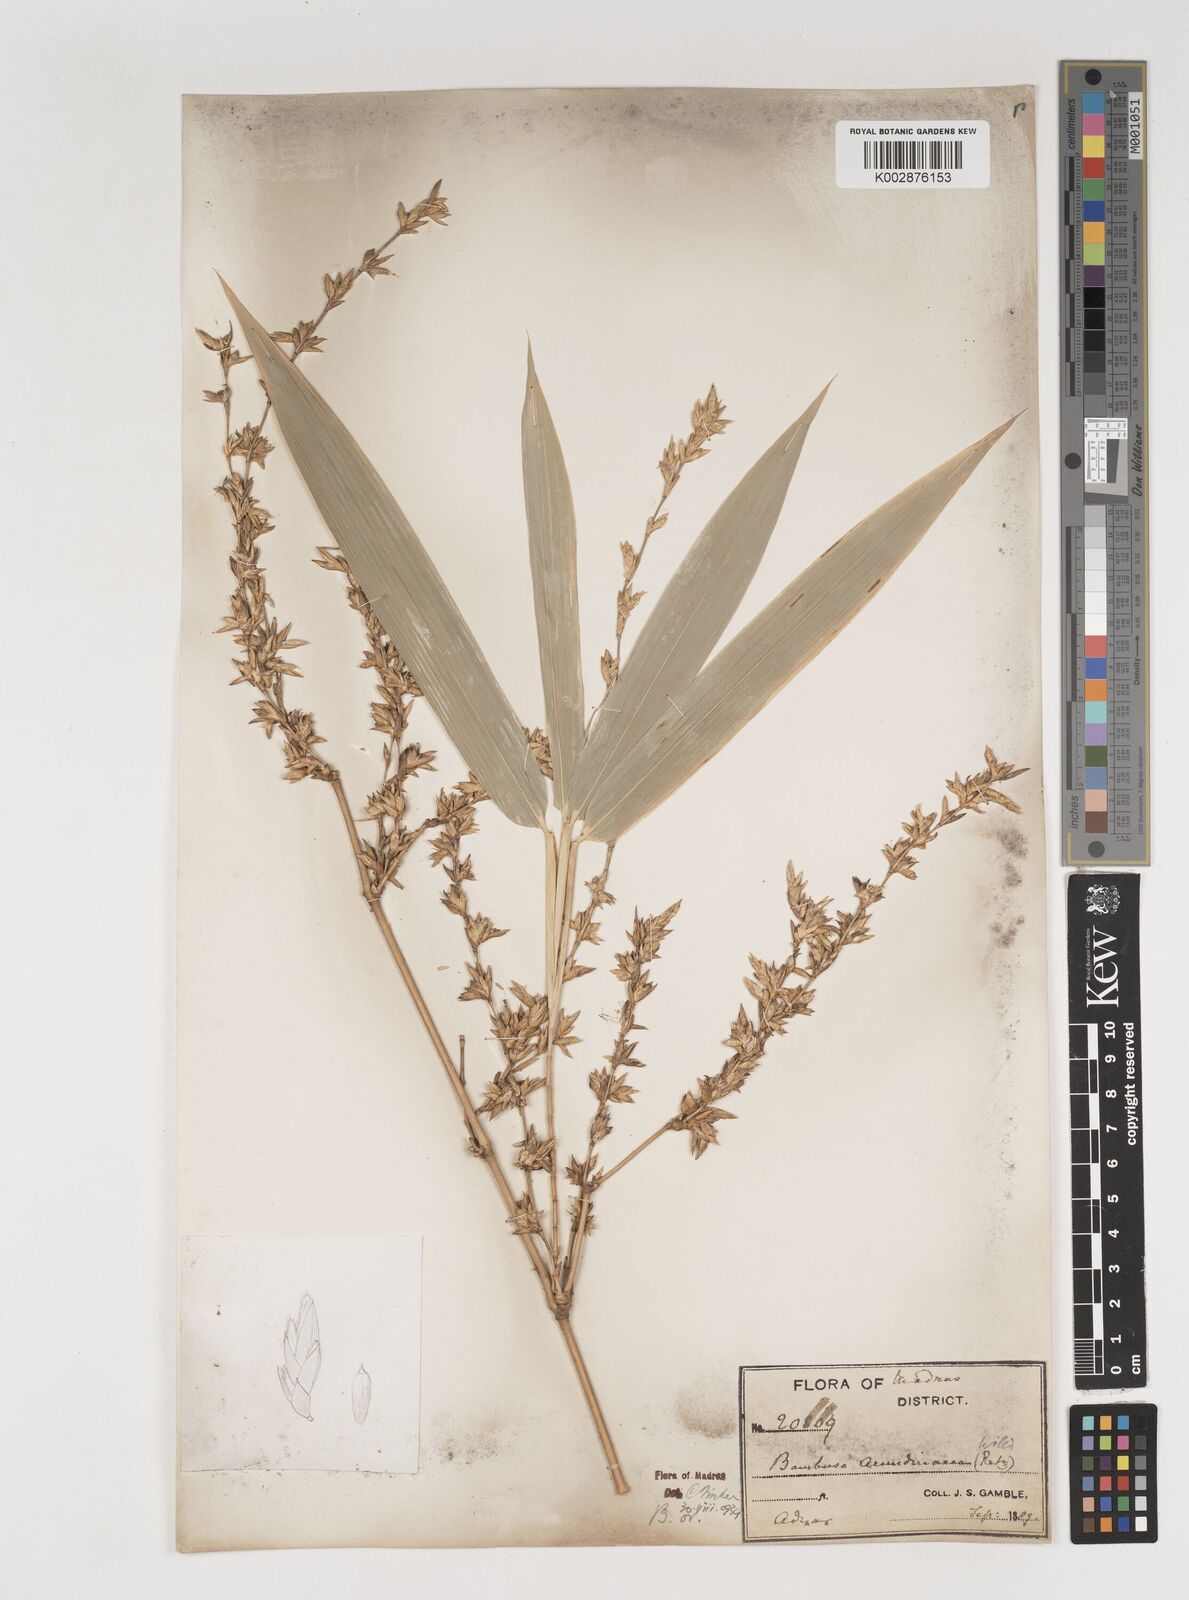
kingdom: Plantae
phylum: Tracheophyta
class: Liliopsida
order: Poales
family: Poaceae
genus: Bambusa
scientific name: Bambusa bambos
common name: Indian thorny bamboo
